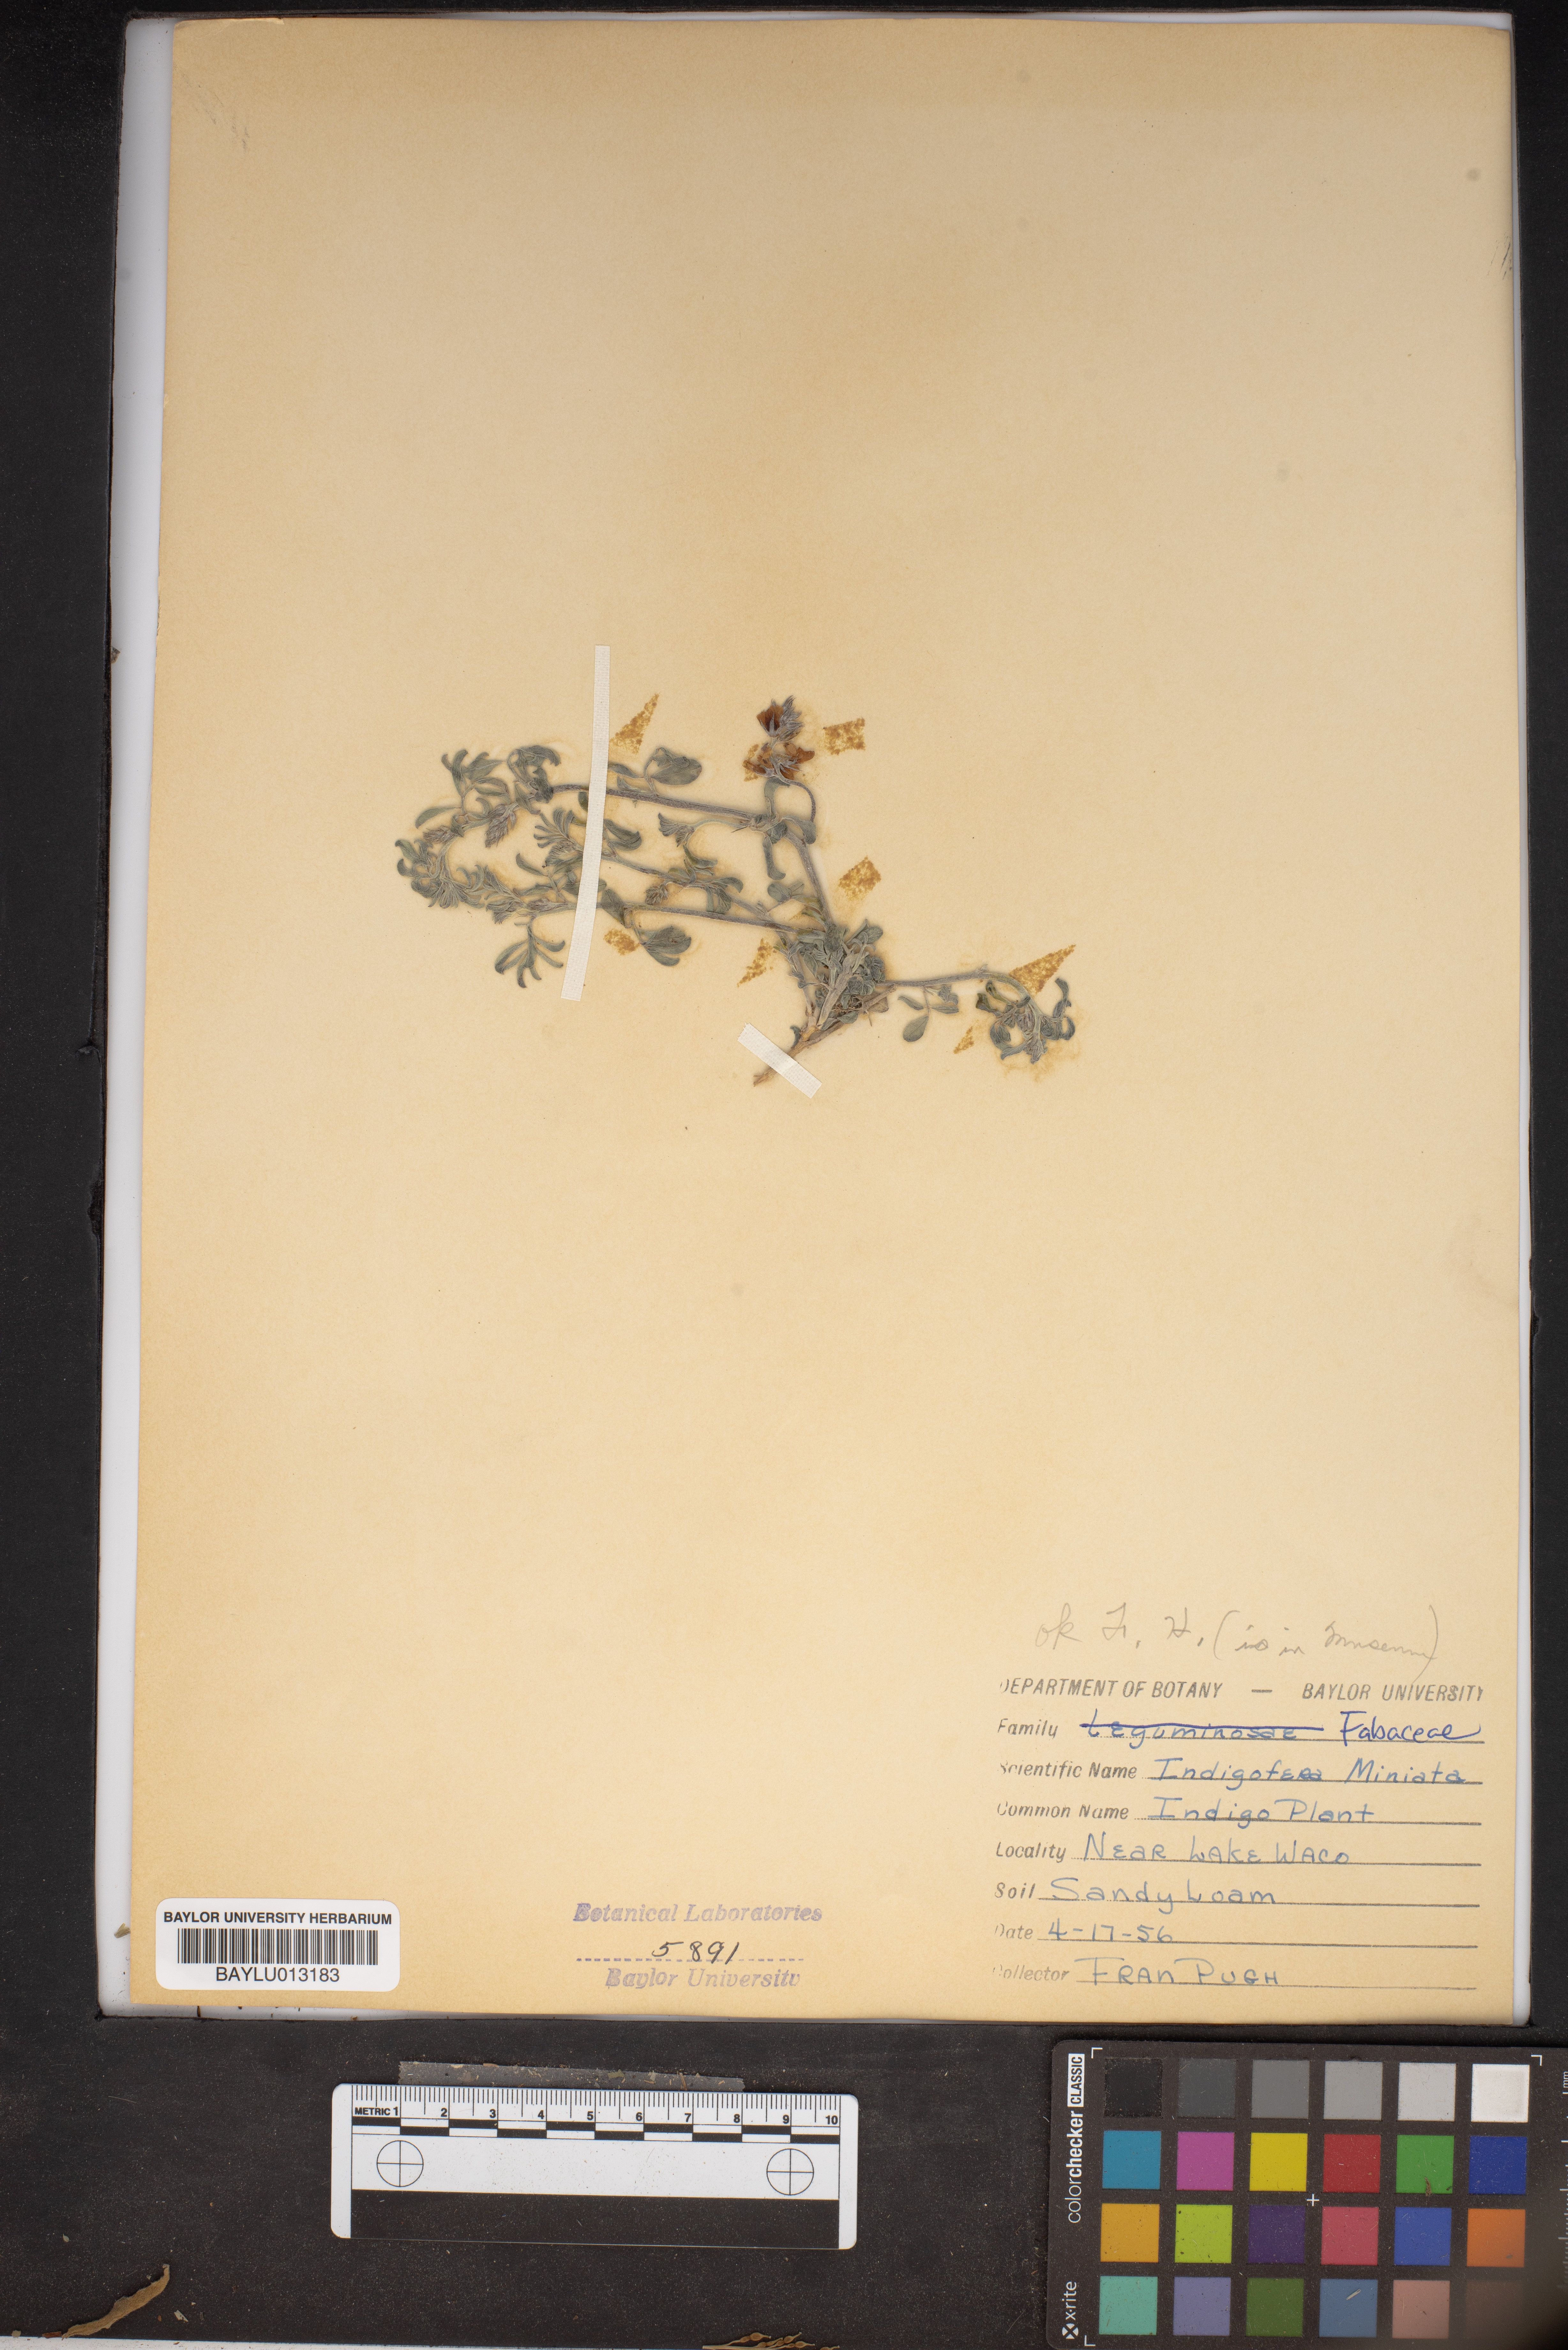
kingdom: Plantae
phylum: Tracheophyta
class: Magnoliopsida
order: Fabales
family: Fabaceae
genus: Indigofera
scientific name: Indigofera miniata
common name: Coast indigo
